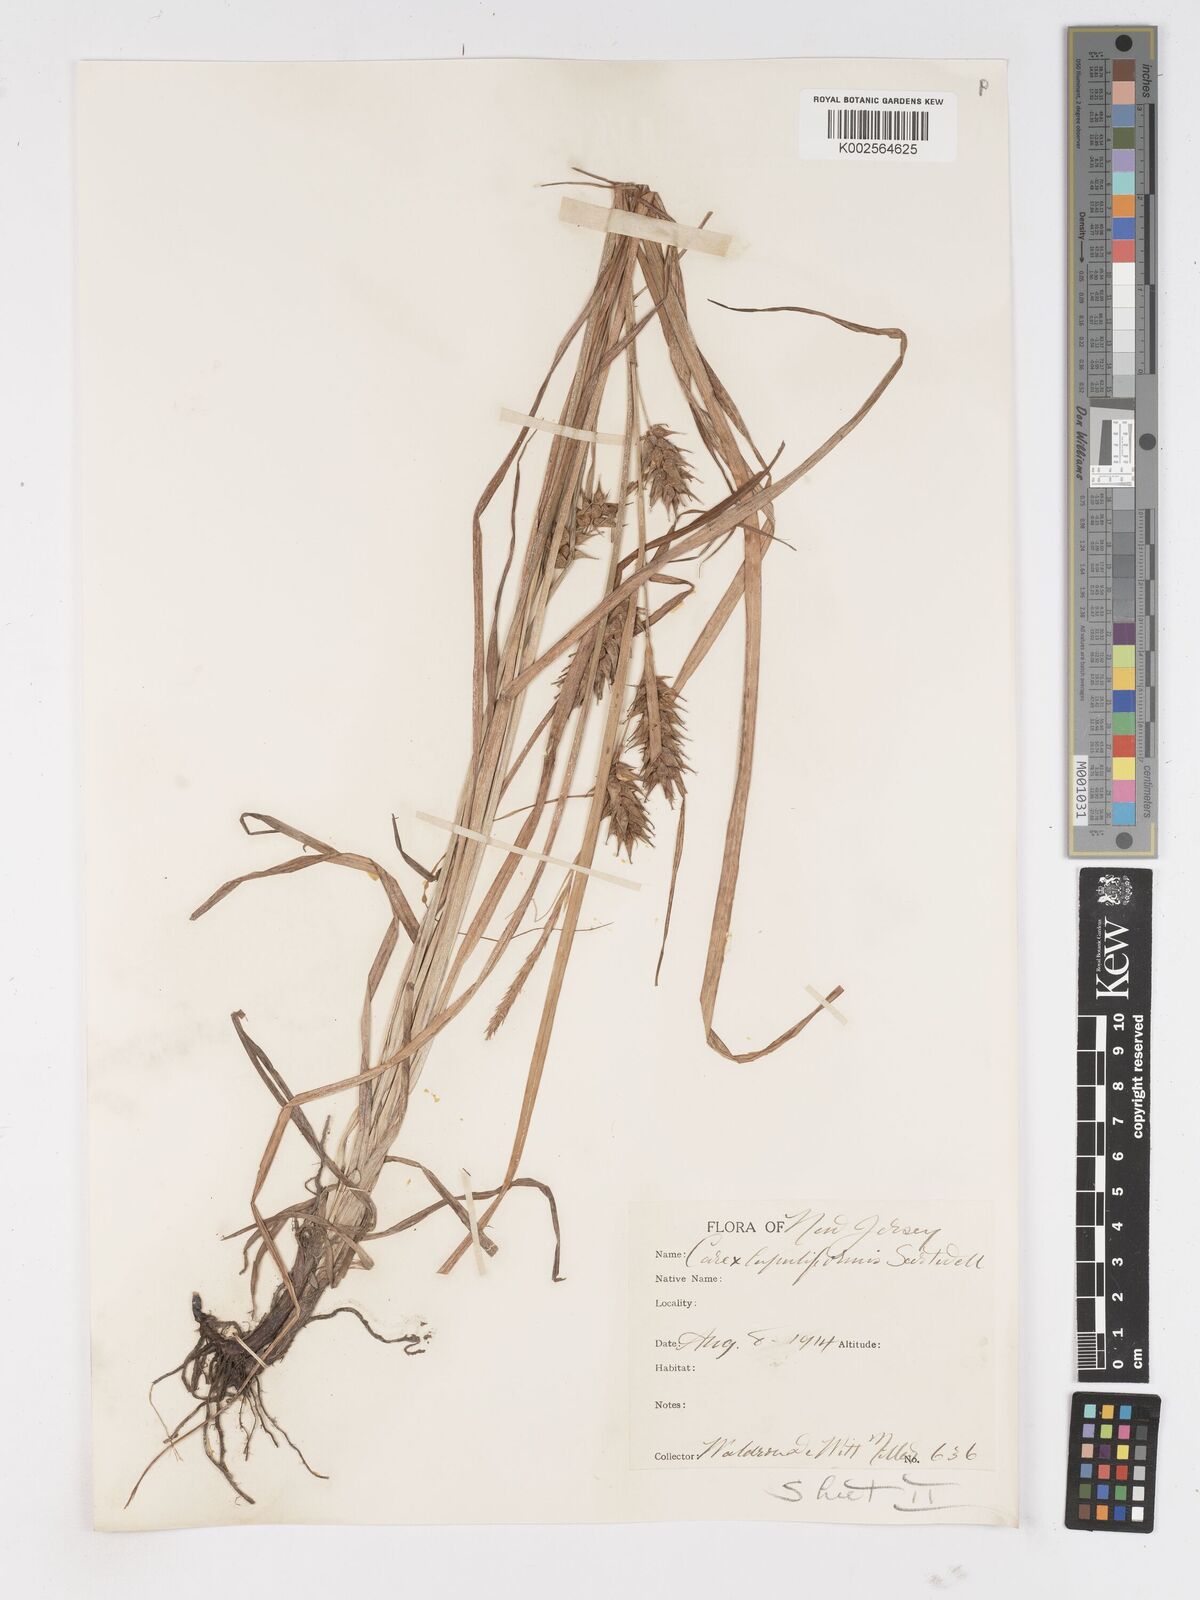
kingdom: Plantae
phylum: Tracheophyta
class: Liliopsida
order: Poales
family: Cyperaceae
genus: Carex
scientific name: Carex lupuliformis
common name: False hop sedge
